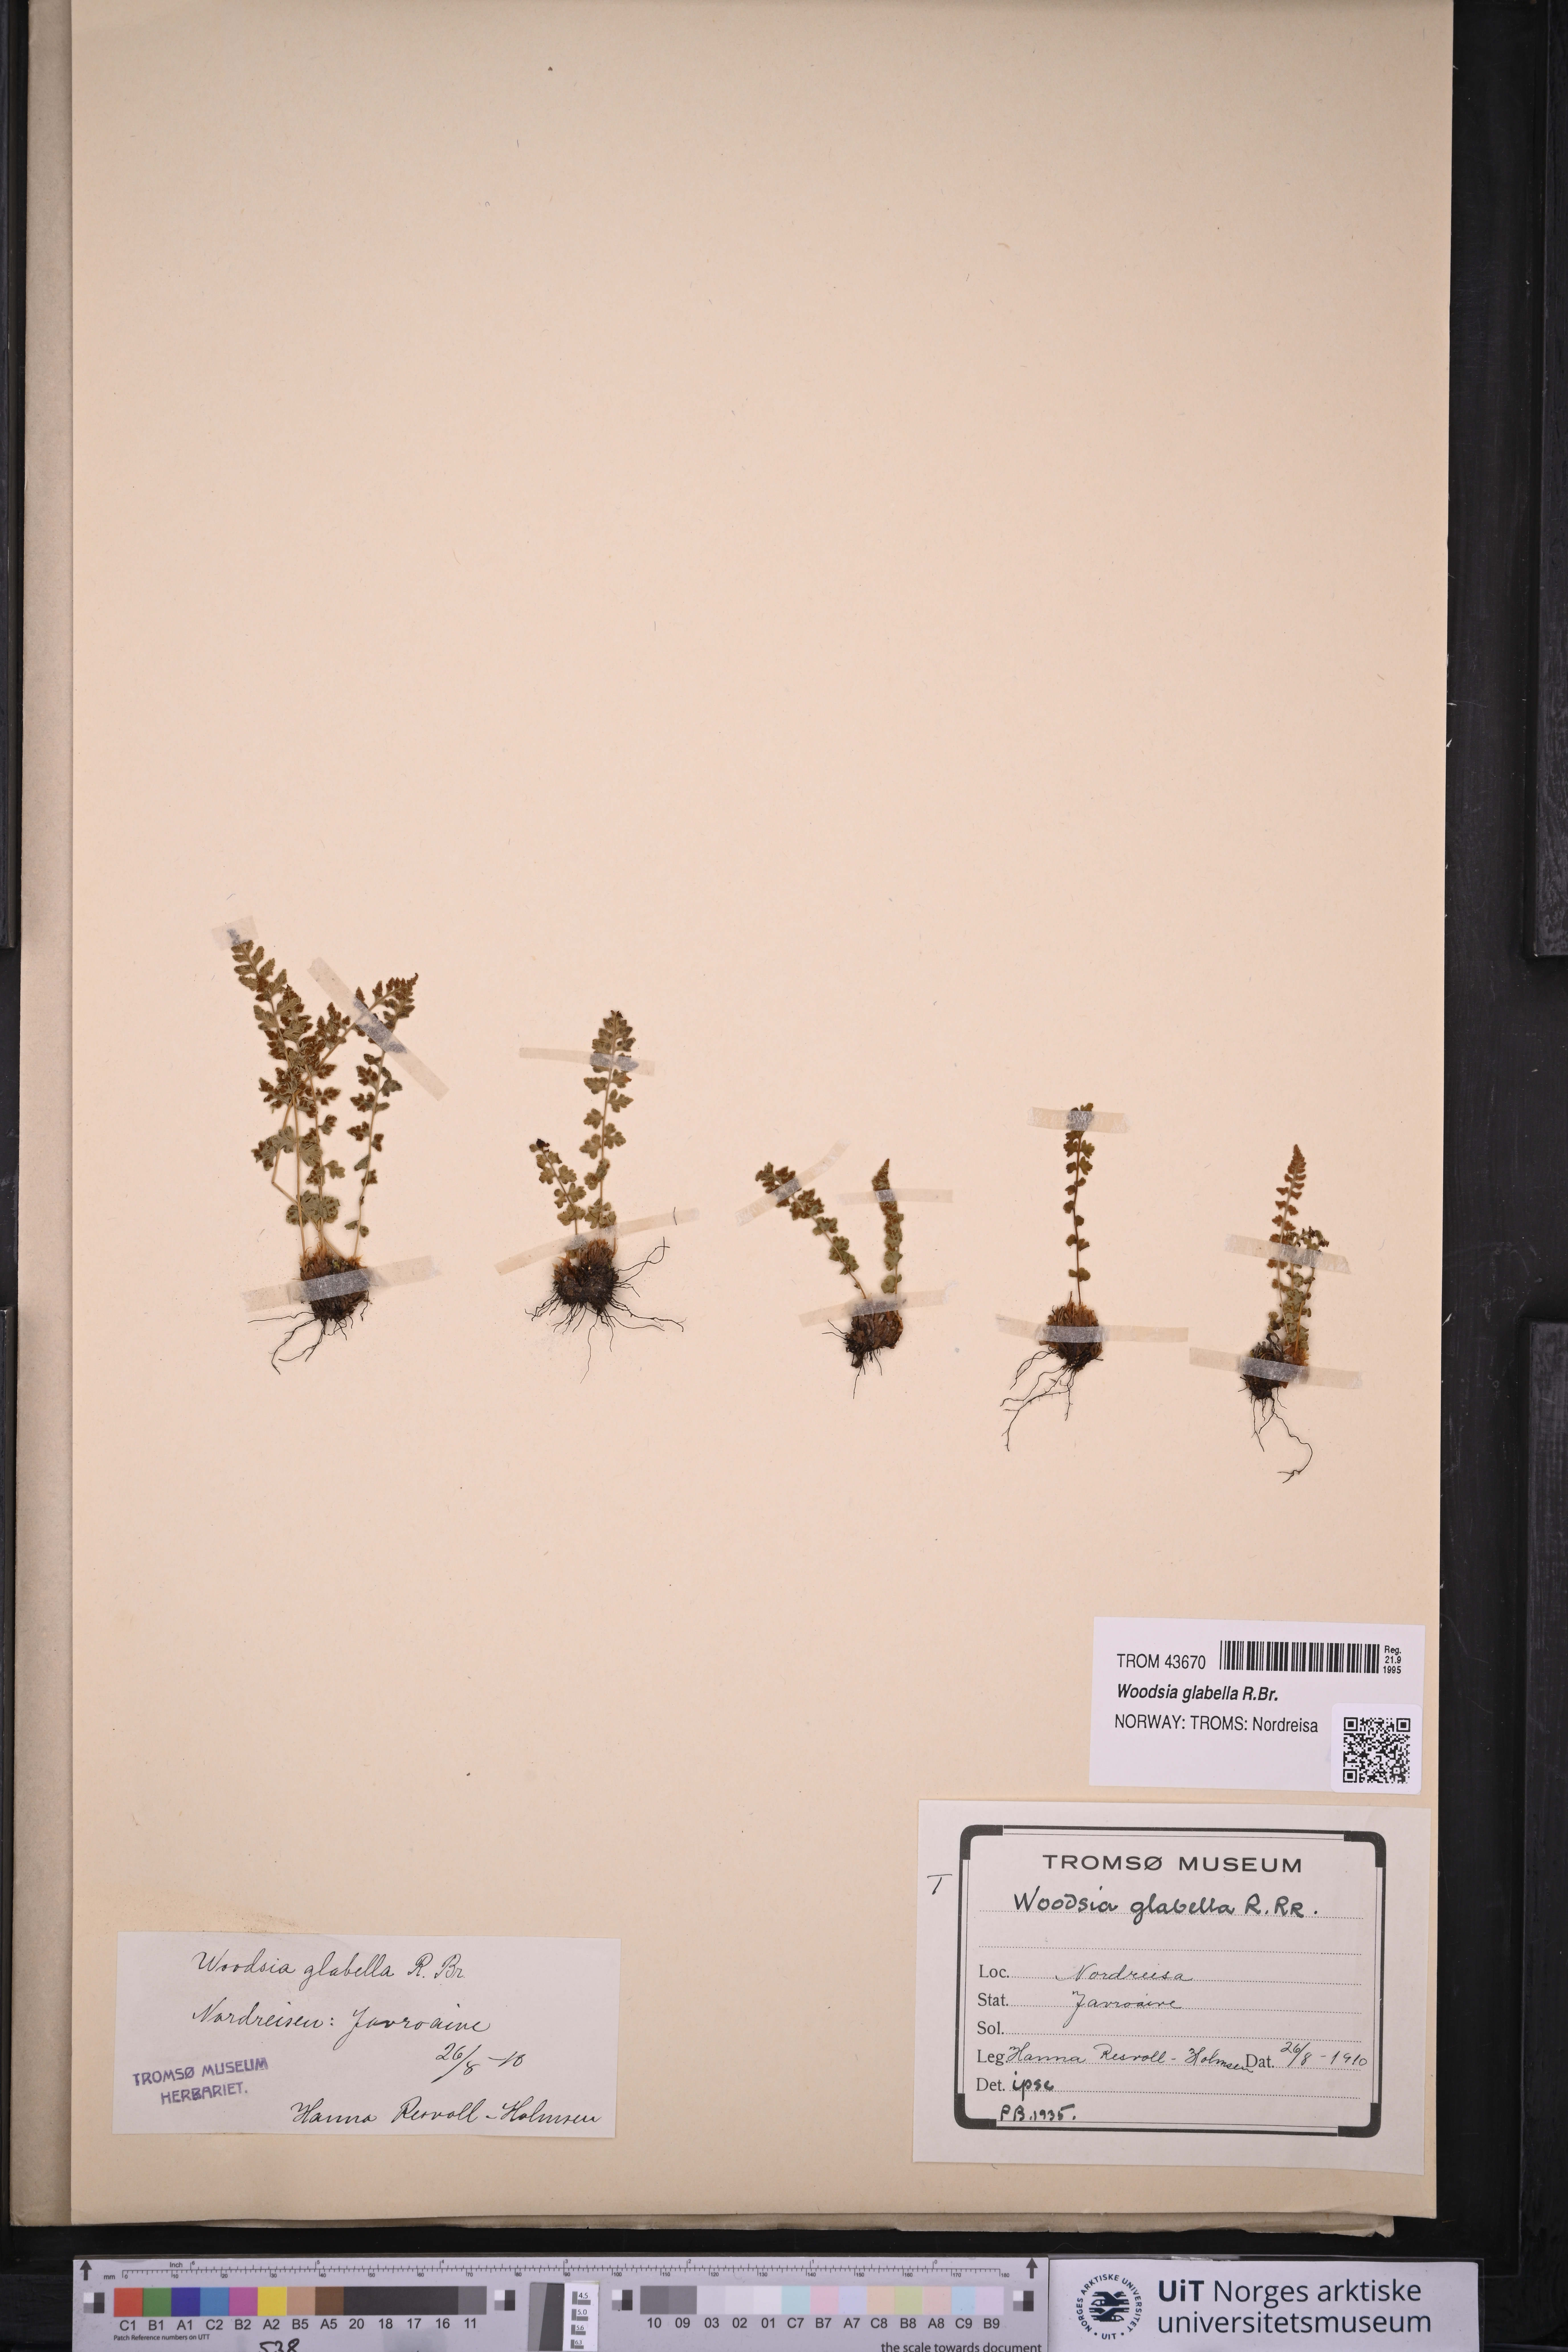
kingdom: Plantae
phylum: Tracheophyta
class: Polypodiopsida
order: Polypodiales
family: Woodsiaceae
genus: Woodsia
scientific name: Woodsia glabella
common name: Smooth woodsia
